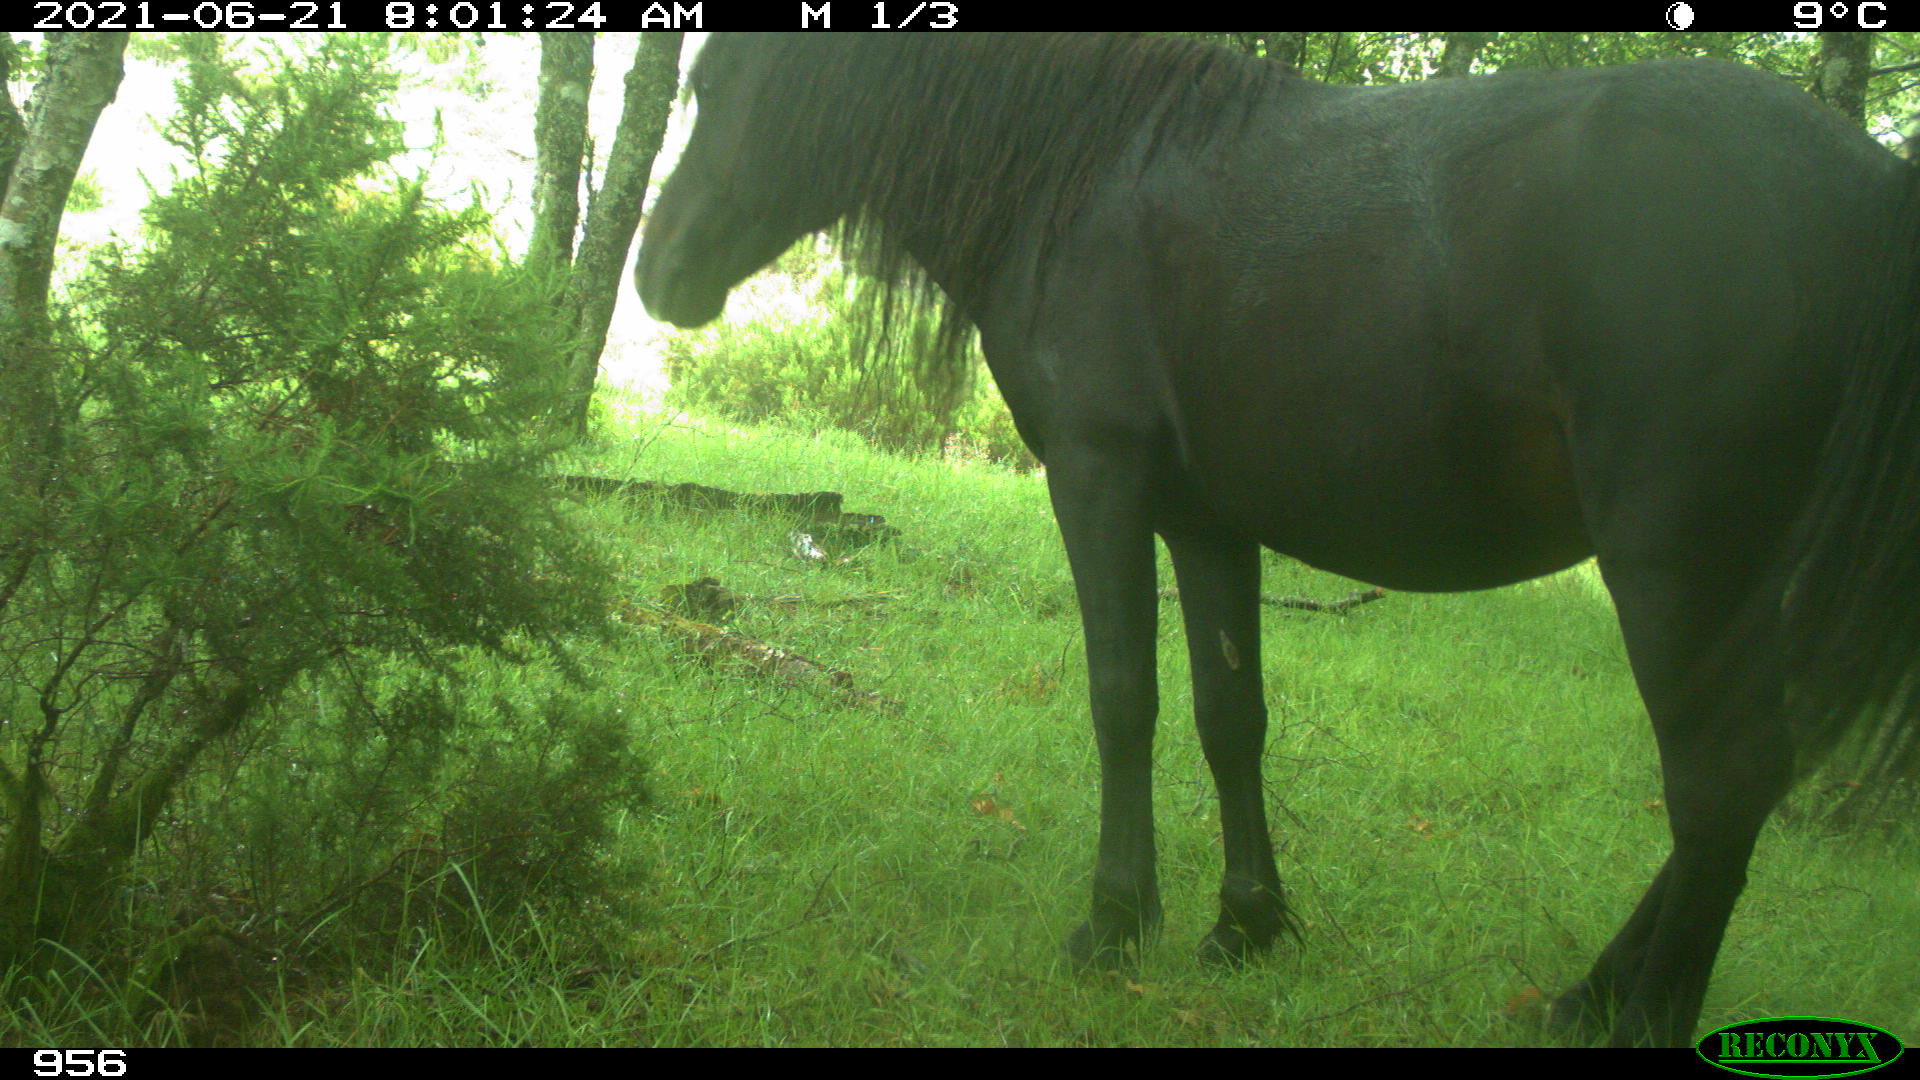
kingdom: Animalia
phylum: Chordata
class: Mammalia
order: Perissodactyla
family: Equidae
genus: Equus
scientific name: Equus caballus
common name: Horse
